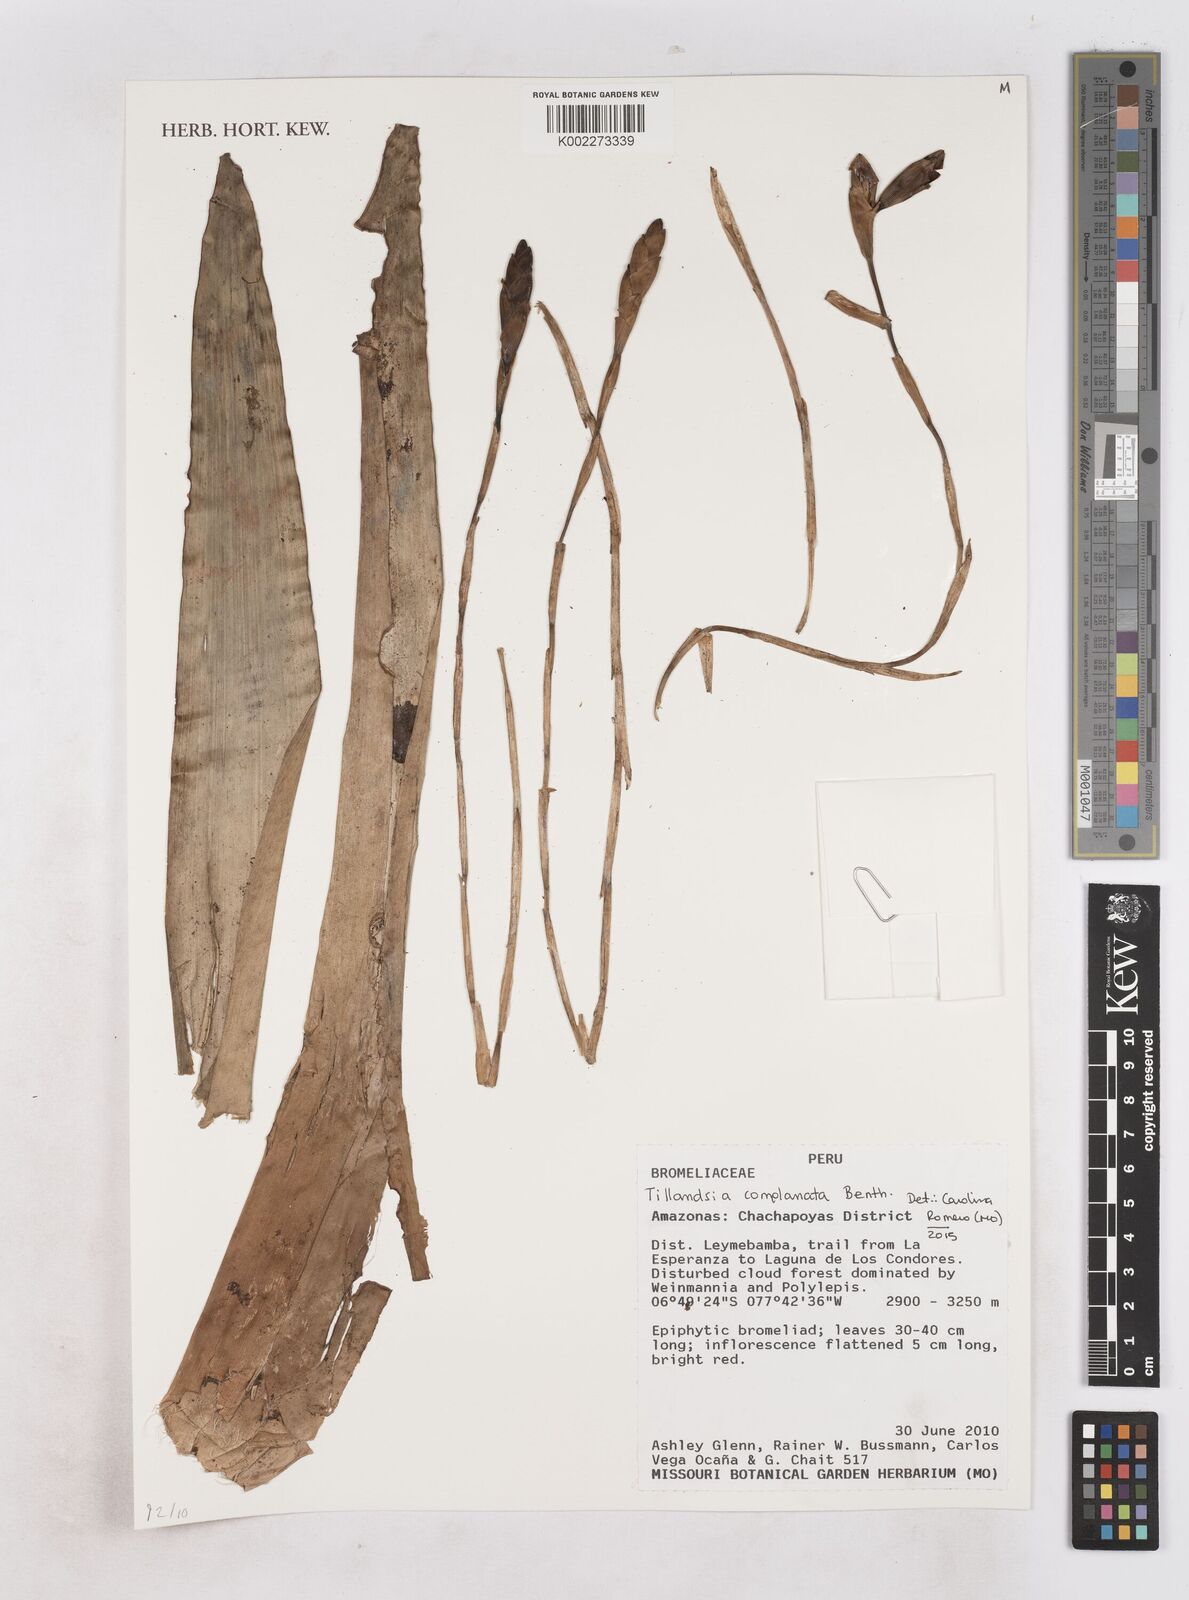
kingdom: Plantae
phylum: Tracheophyta
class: Liliopsida
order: Poales
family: Bromeliaceae
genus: Tillandsia
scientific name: Tillandsia complanata
